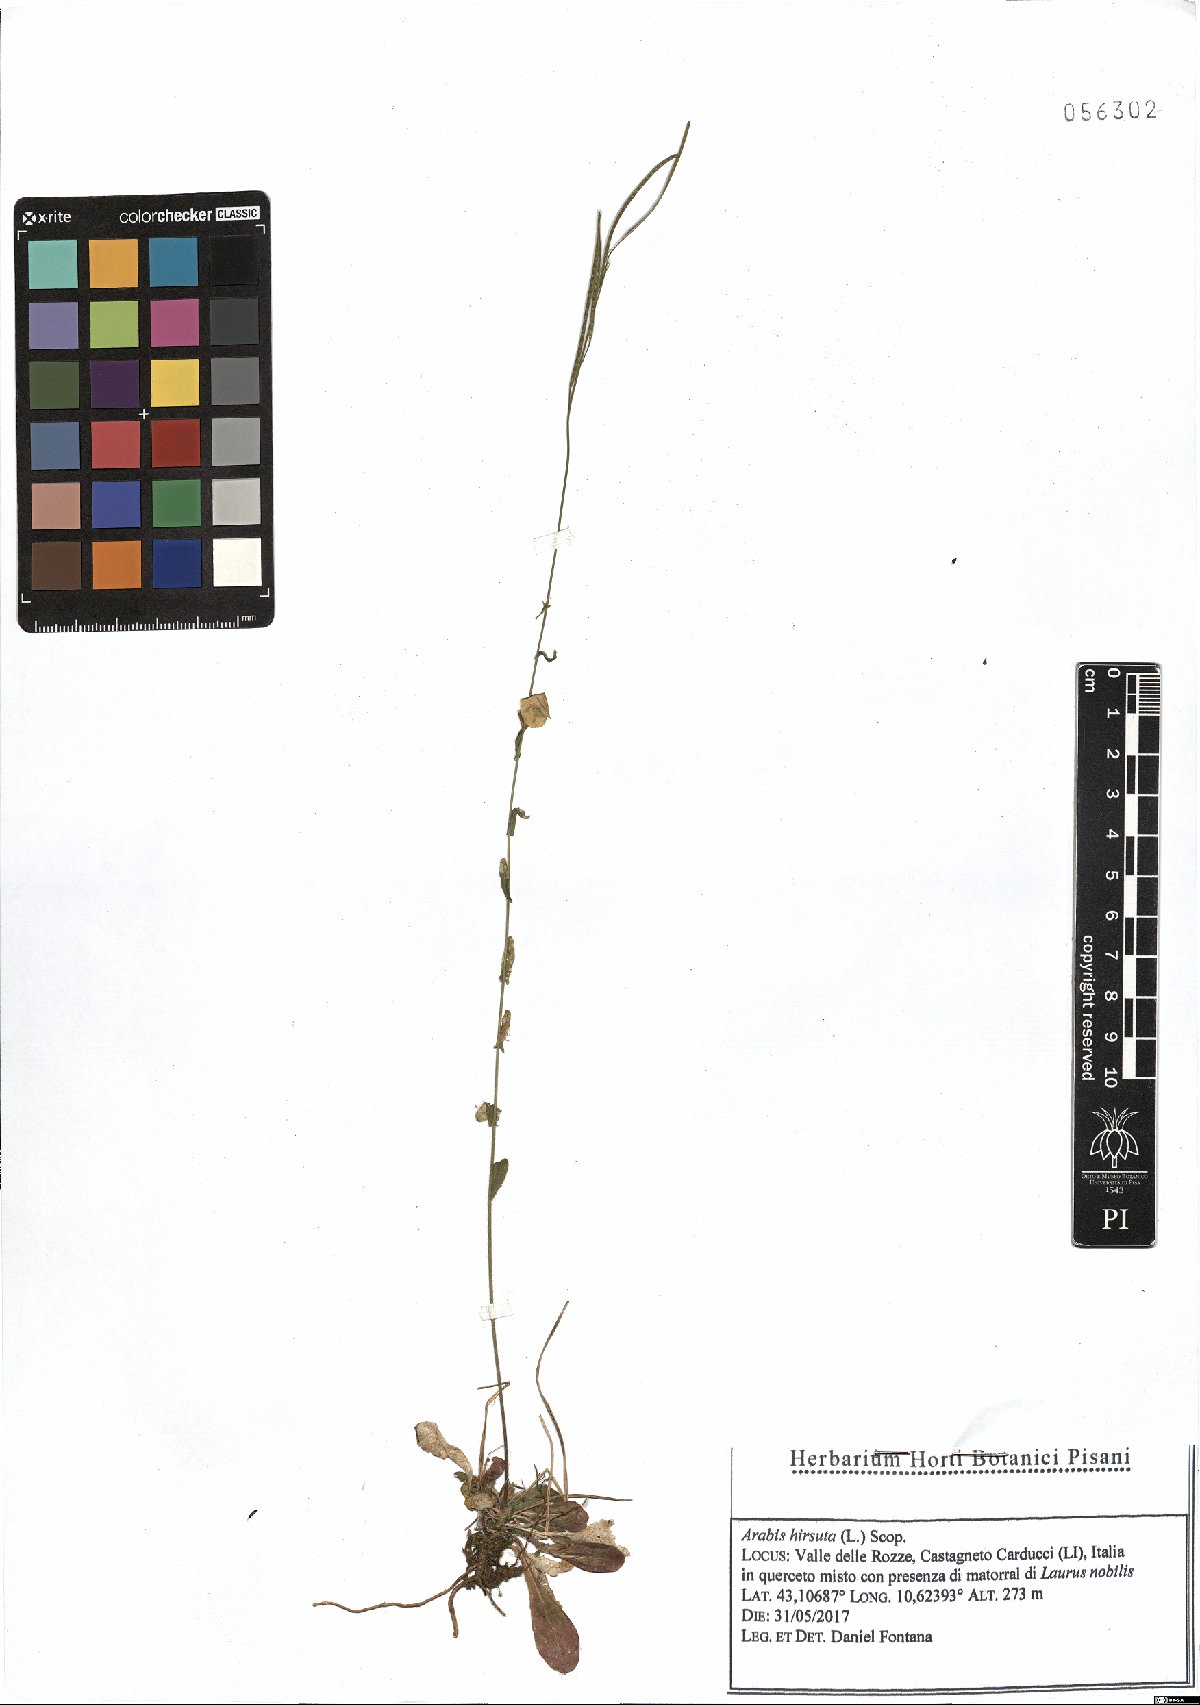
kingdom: Plantae
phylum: Tracheophyta
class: Magnoliopsida
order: Brassicales
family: Brassicaceae
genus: Arabis
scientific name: Arabis hirsuta
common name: Hairy rock-cress
